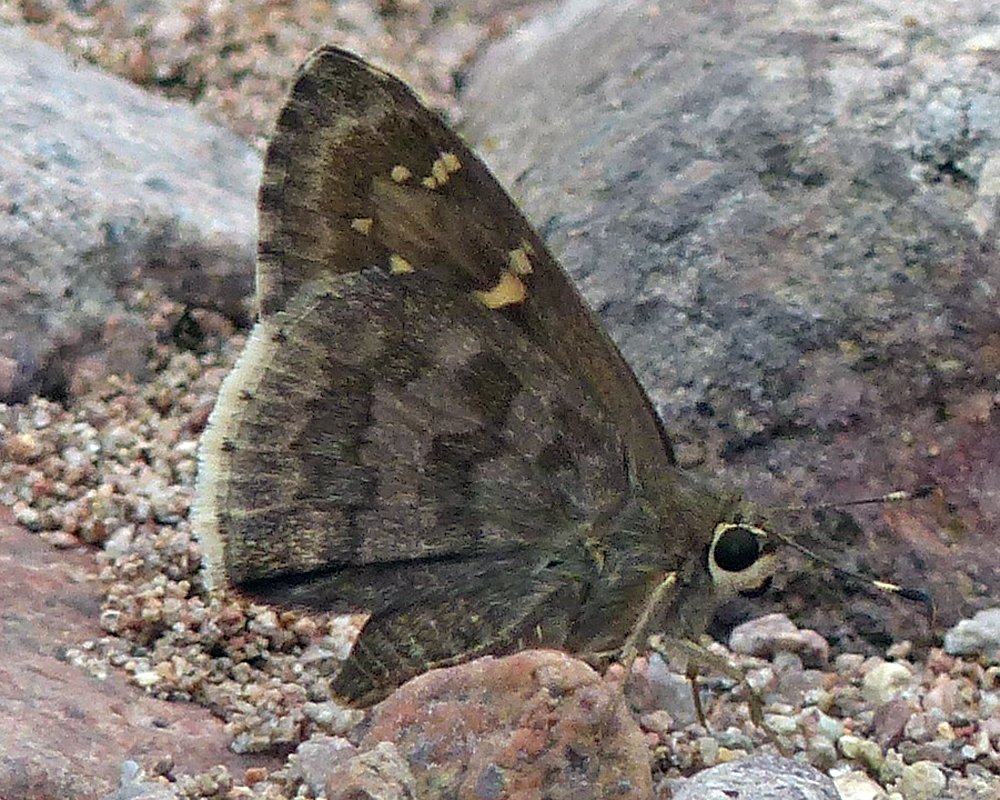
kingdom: Animalia
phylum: Arthropoda
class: Insecta
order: Lepidoptera
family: Hesperiidae
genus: Cogia
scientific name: Cogia hippalus
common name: Acacia Skipper
